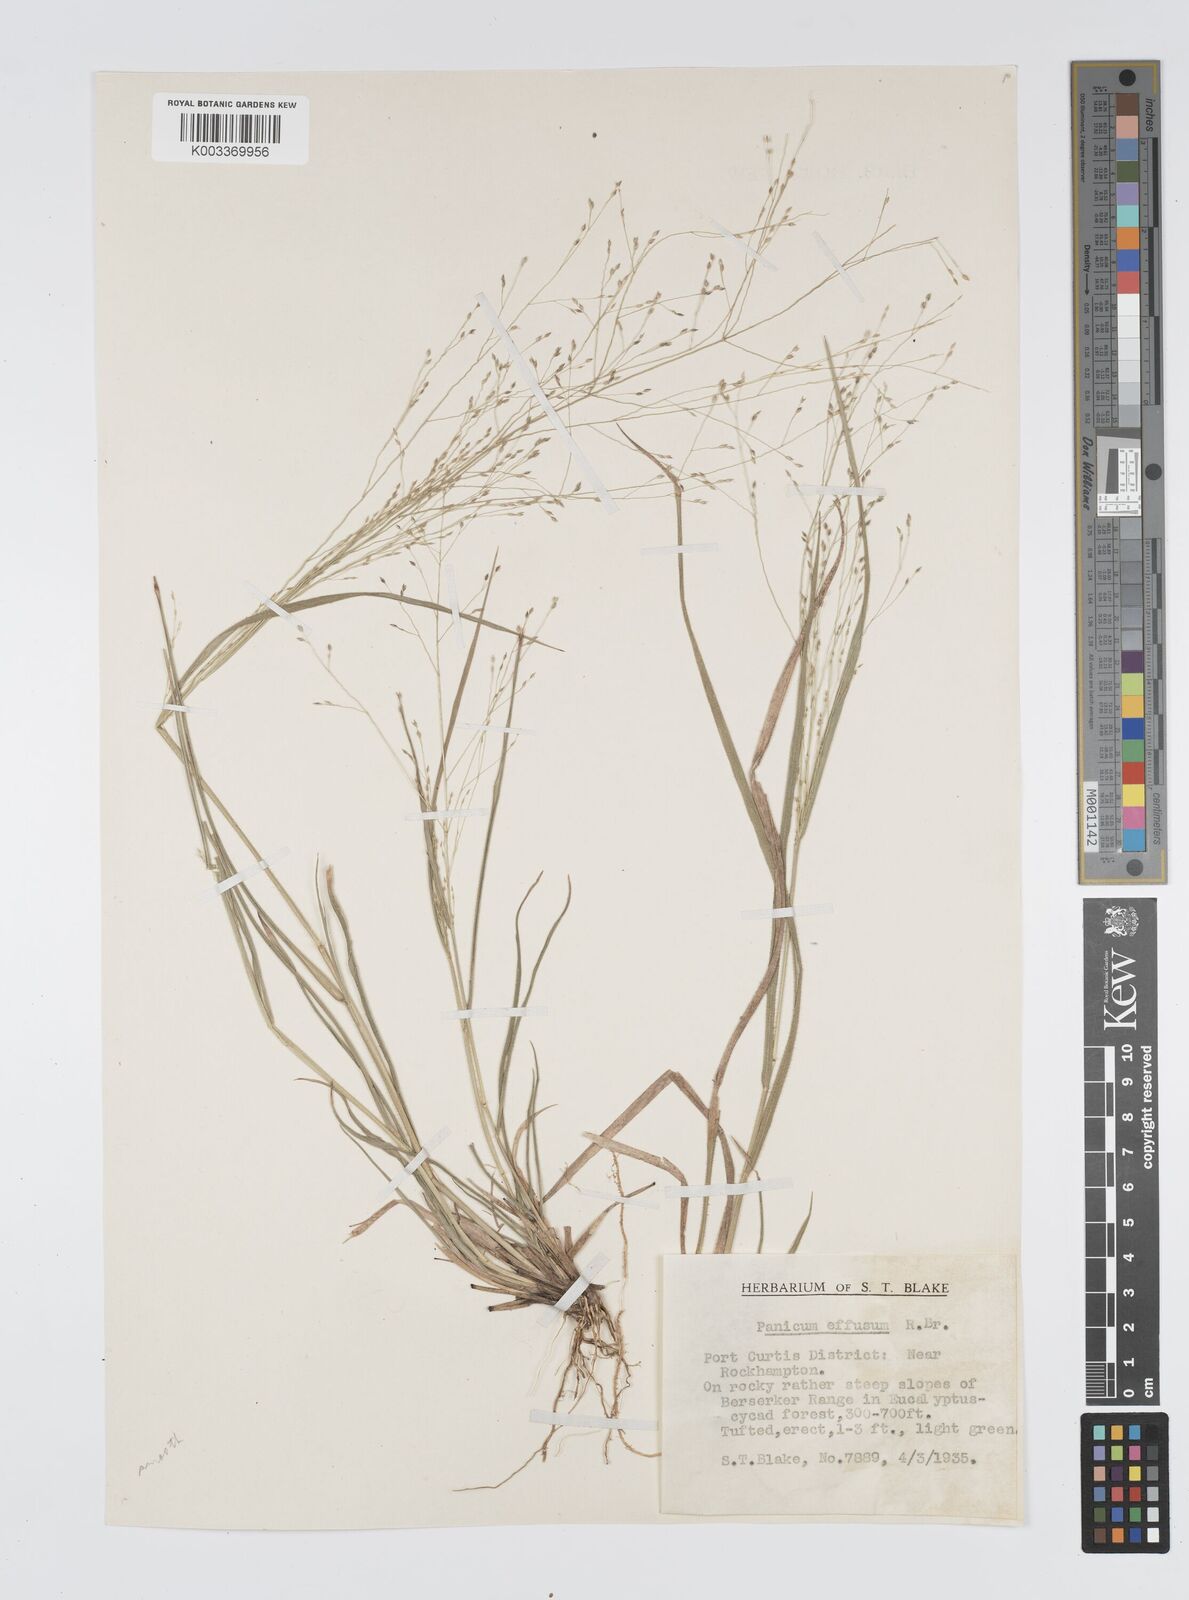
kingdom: Plantae
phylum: Tracheophyta
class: Liliopsida
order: Poales
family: Poaceae
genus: Panicum
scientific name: Panicum effusum
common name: Hairy panic grass
